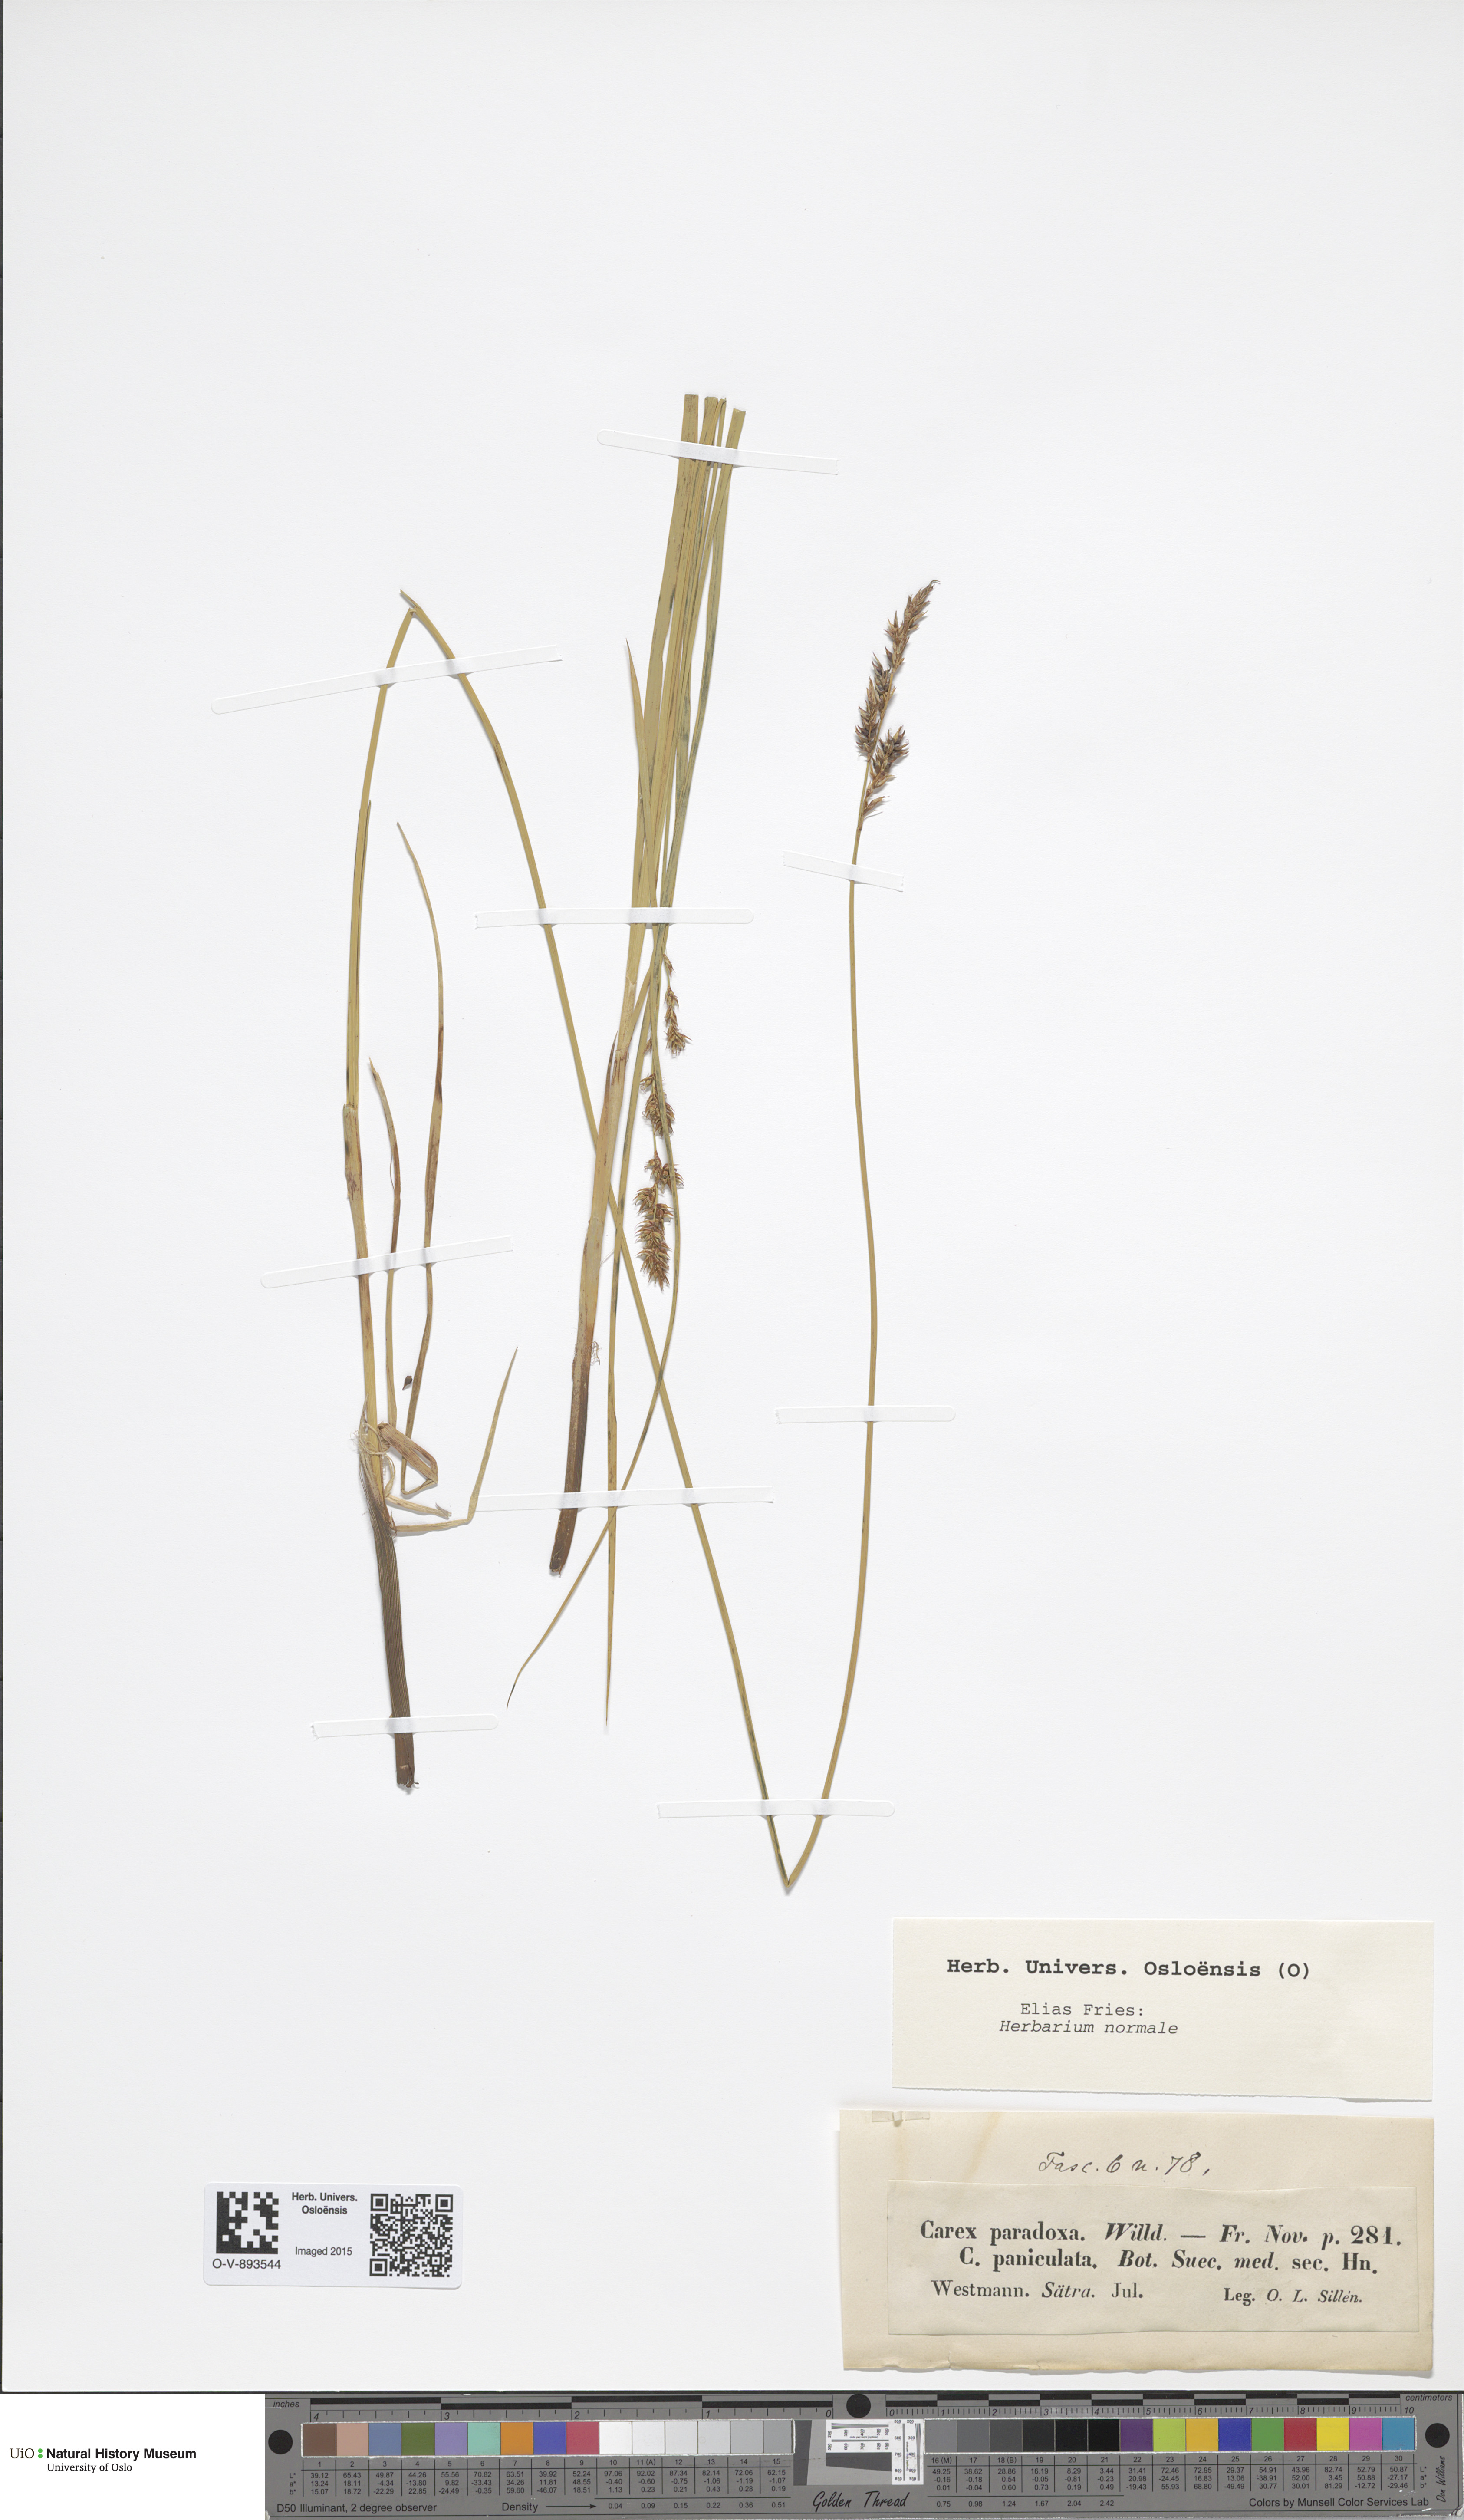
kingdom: Plantae
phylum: Tracheophyta
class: Liliopsida
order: Poales
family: Cyperaceae
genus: Carex
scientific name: Carex appropinquata
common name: Fibrous tussock-sedge
